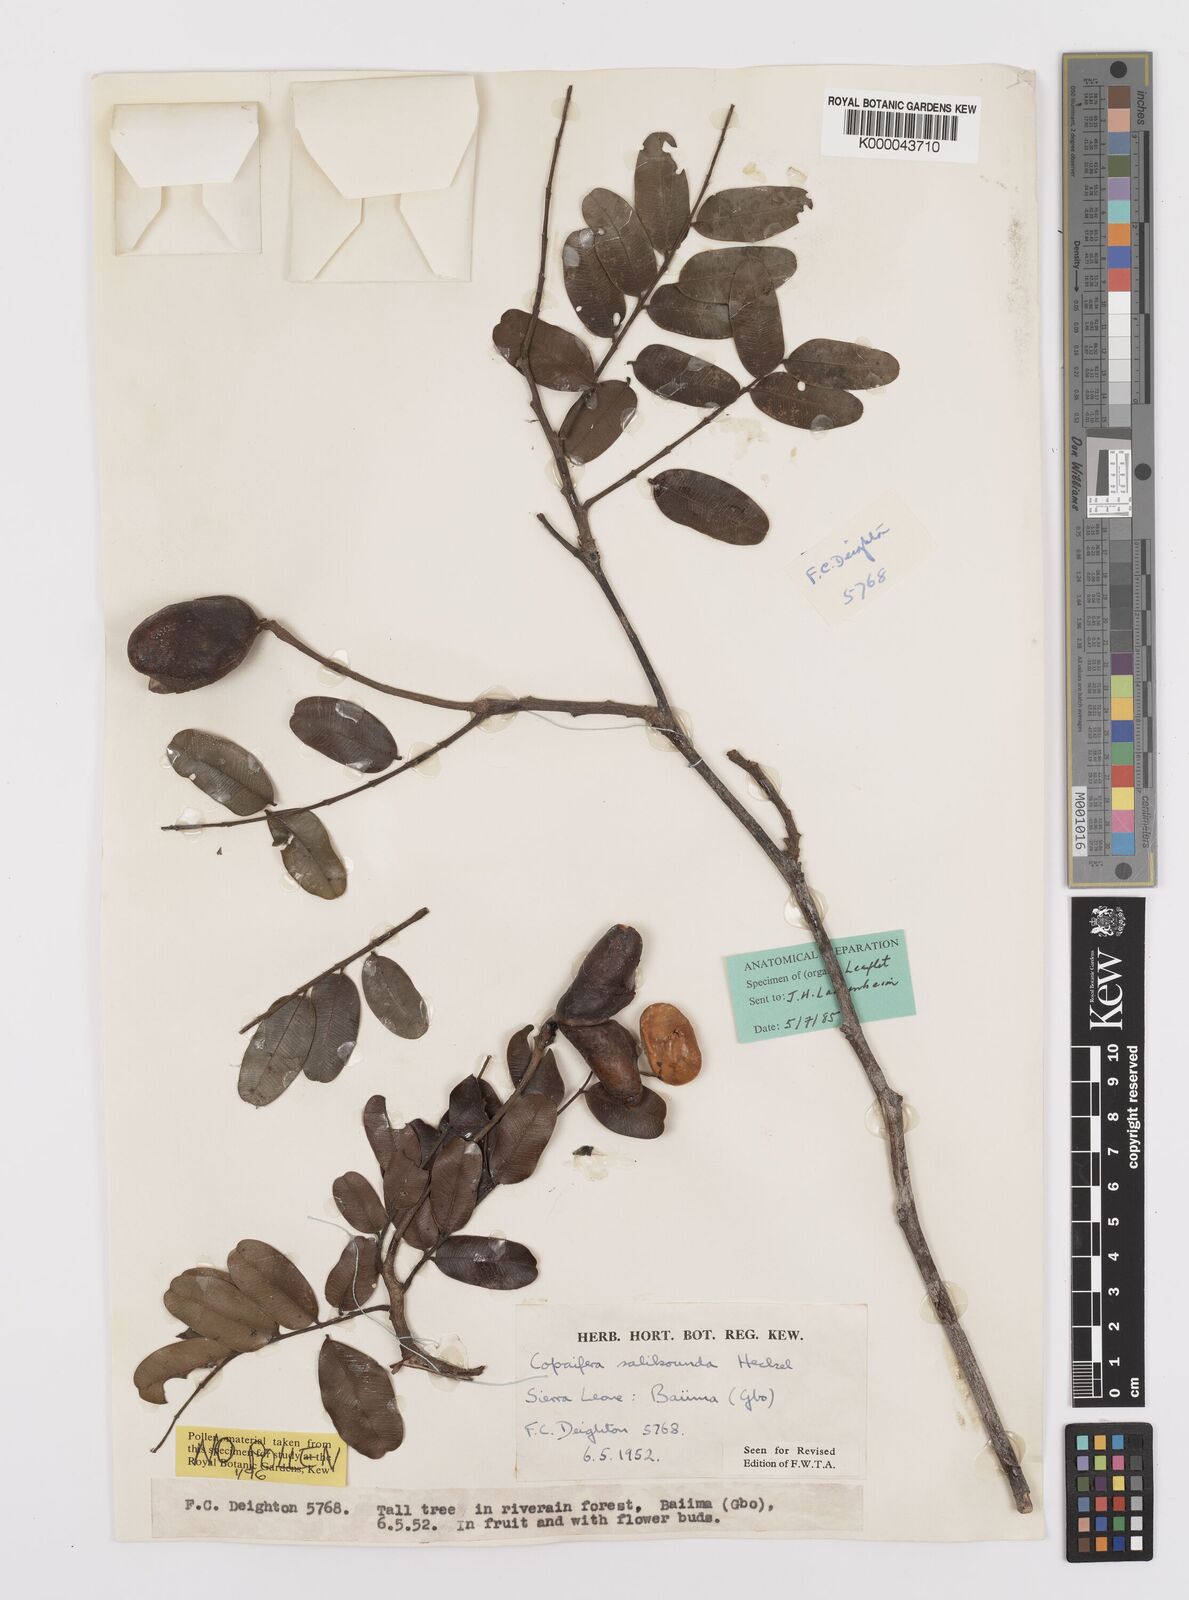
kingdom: Plantae
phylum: Tracheophyta
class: Magnoliopsida
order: Fabales
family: Fabaceae
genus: Copaifera
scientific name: Copaifera salikounda
